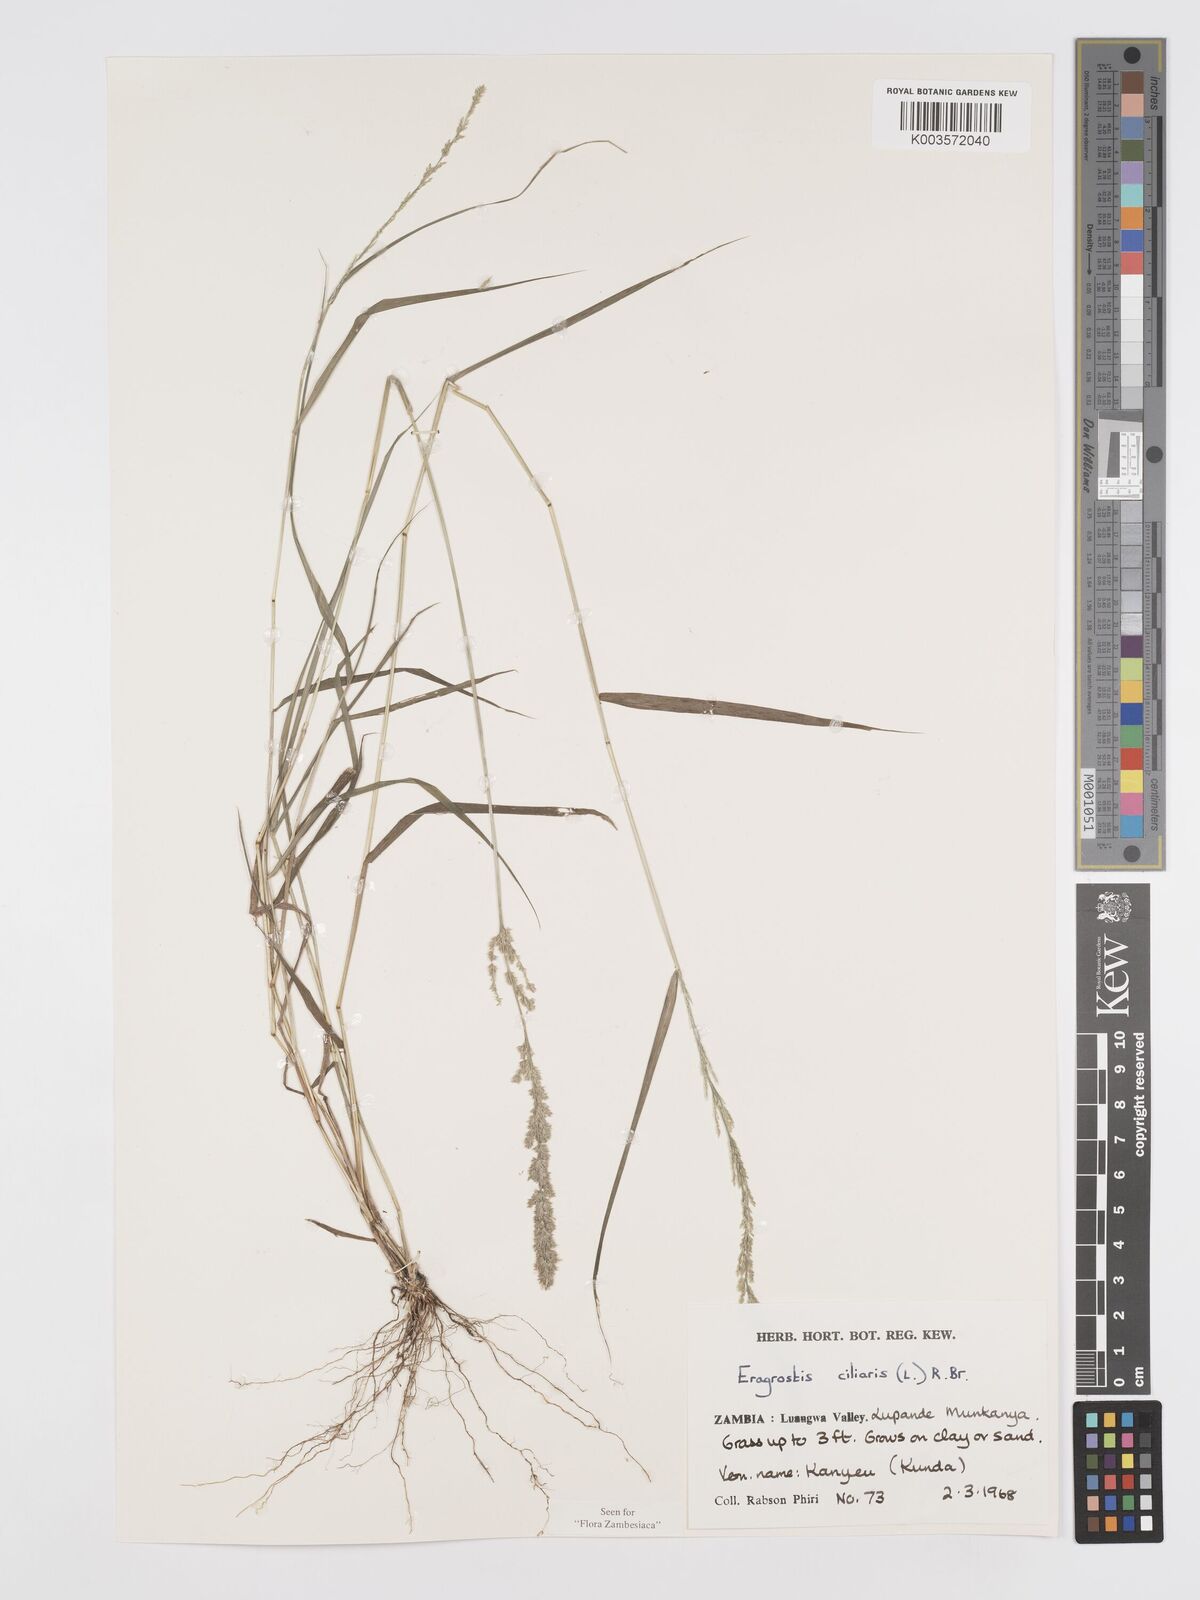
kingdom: Plantae
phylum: Tracheophyta
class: Liliopsida
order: Poales
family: Poaceae
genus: Eragrostis
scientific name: Eragrostis ciliaris
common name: Gophertail lovegrass
